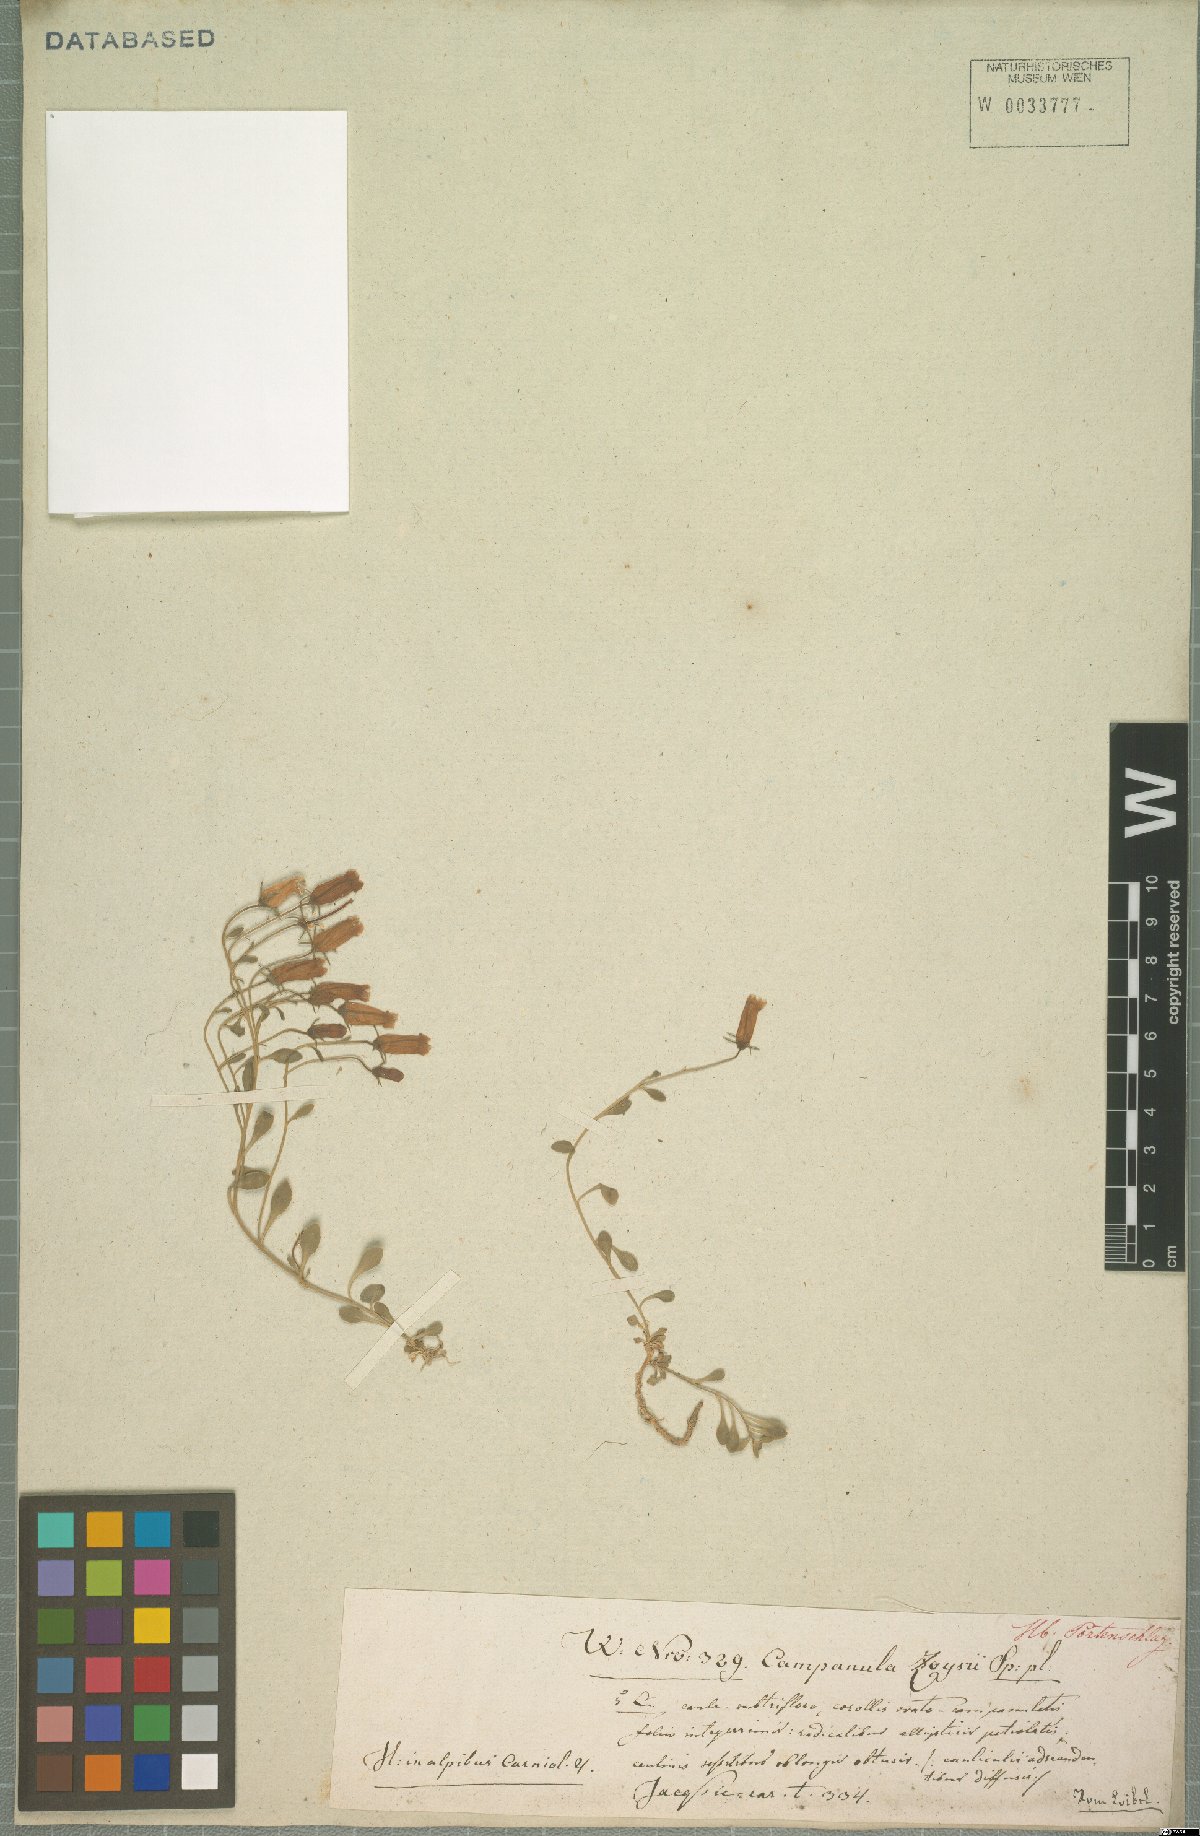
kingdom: Plantae
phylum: Tracheophyta
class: Magnoliopsida
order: Asterales
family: Campanulaceae
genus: Favratia
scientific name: Favratia zoysii
